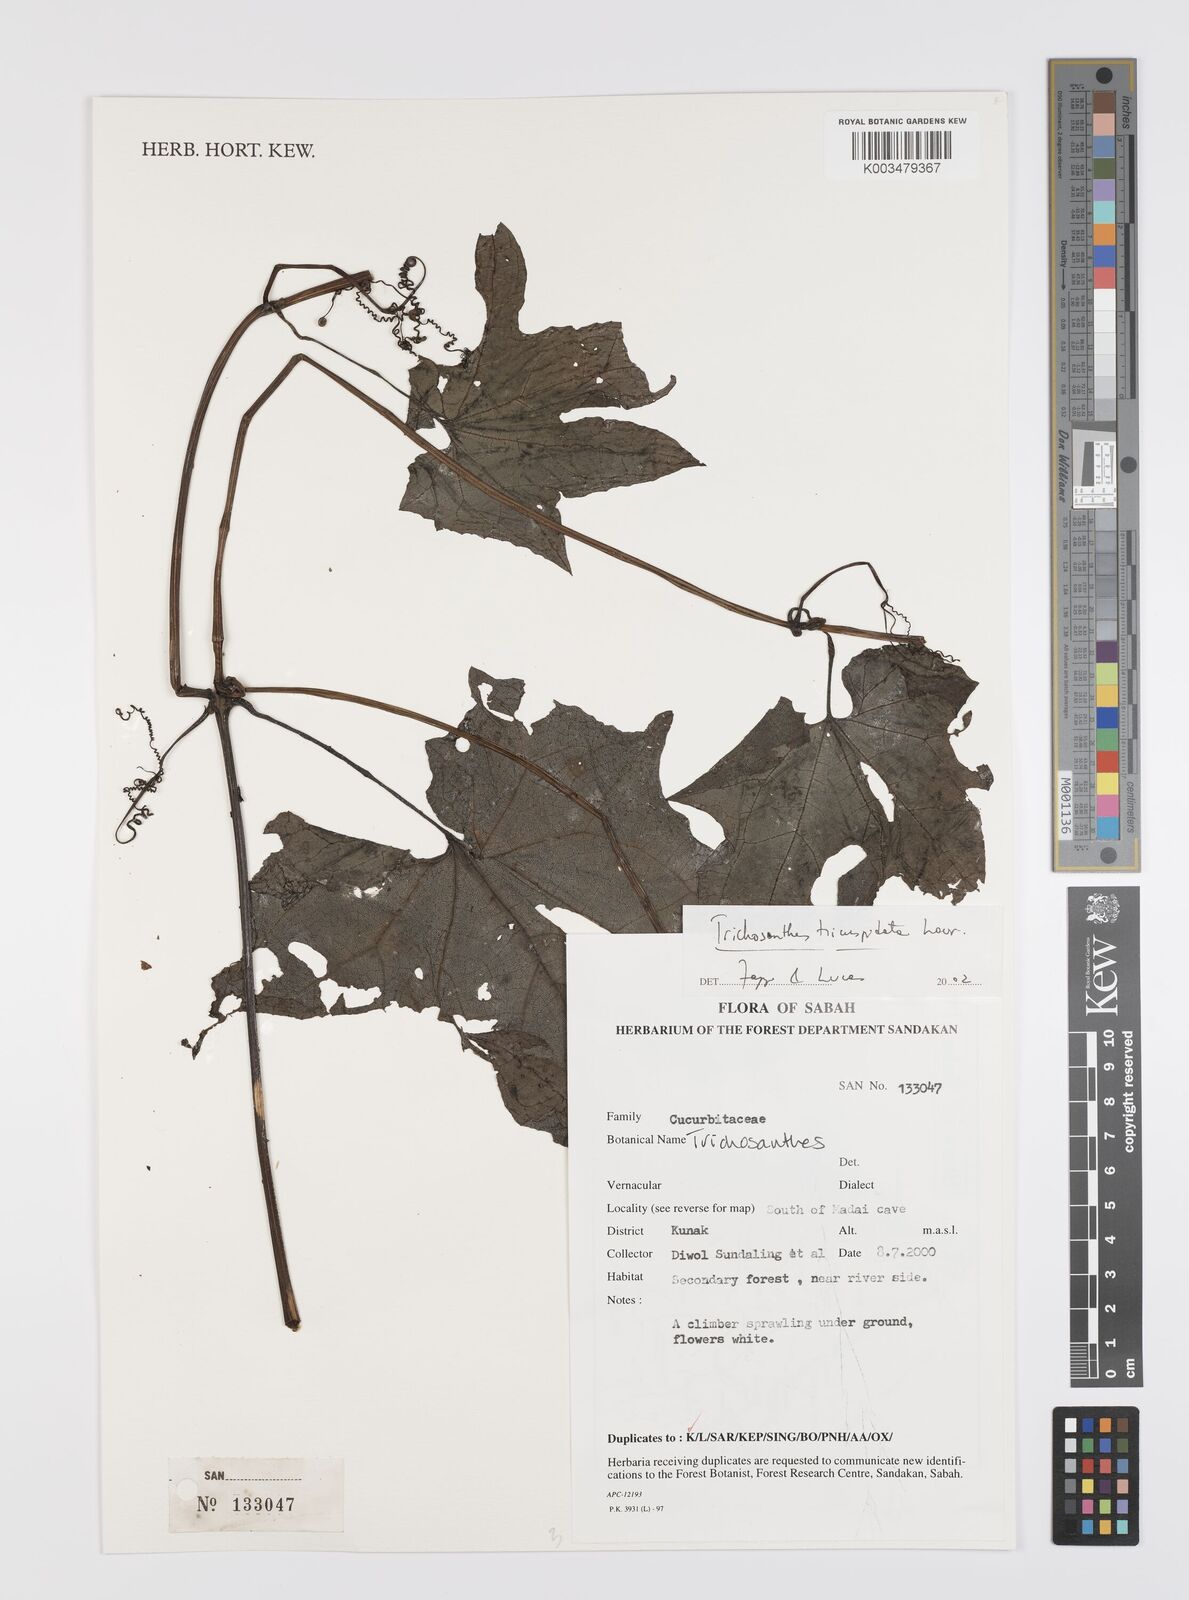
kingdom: Plantae
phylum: Tracheophyta
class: Magnoliopsida
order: Cucurbitales
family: Cucurbitaceae
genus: Trichosanthes
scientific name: Trichosanthes tricuspidata
